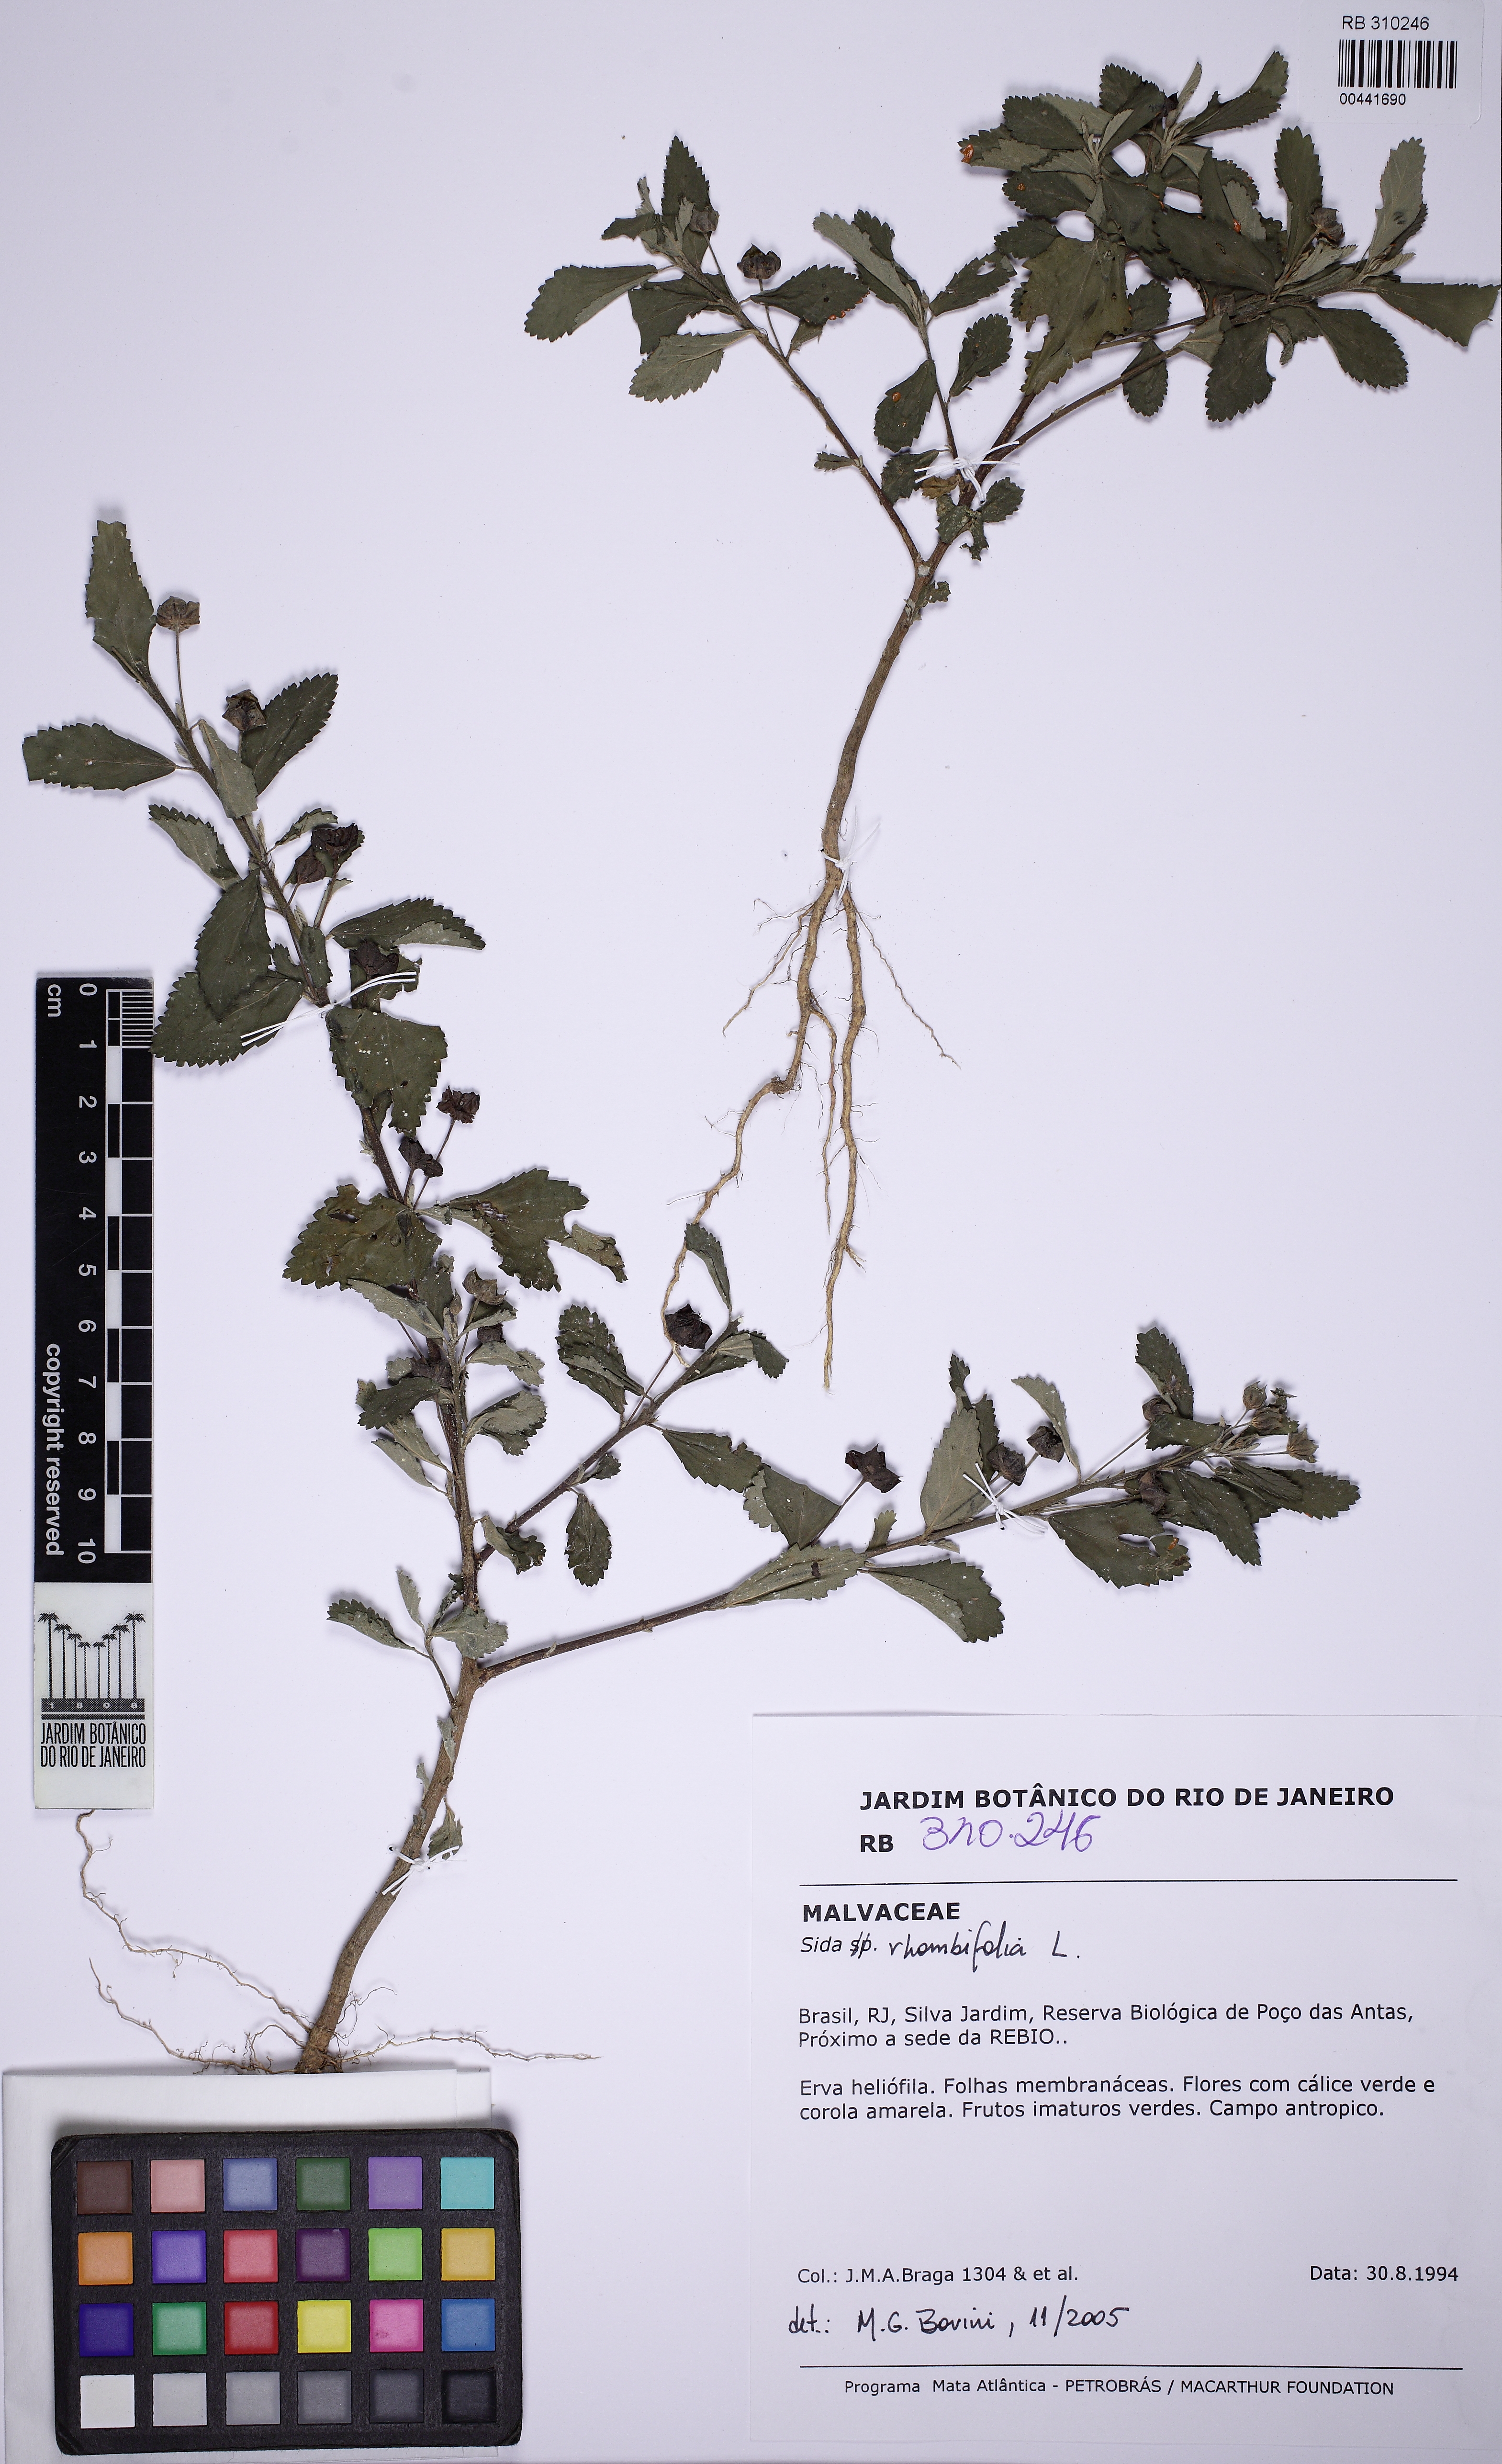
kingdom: Plantae
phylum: Tracheophyta
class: Magnoliopsida
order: Malvales
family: Malvaceae
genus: Sida
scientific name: Sida rhombifolia
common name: Queensland-hemp
